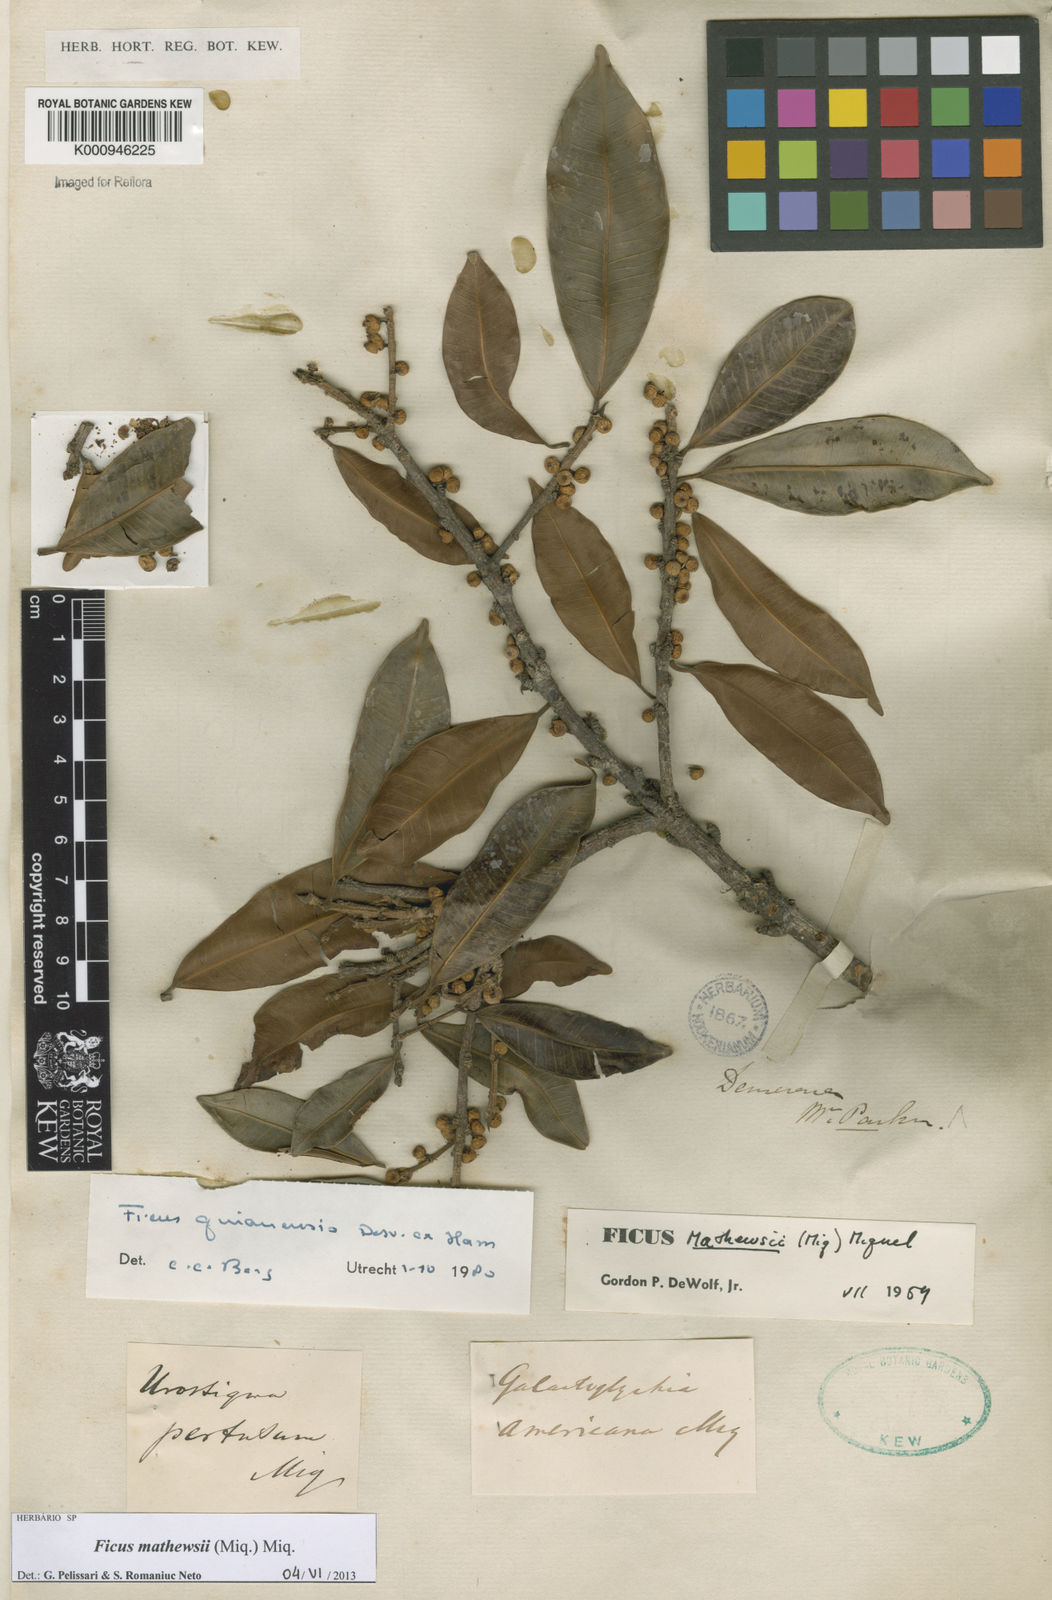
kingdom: Plantae
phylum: Tracheophyta
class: Magnoliopsida
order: Rosales
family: Moraceae
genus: Ficus
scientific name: Ficus mathewsii
